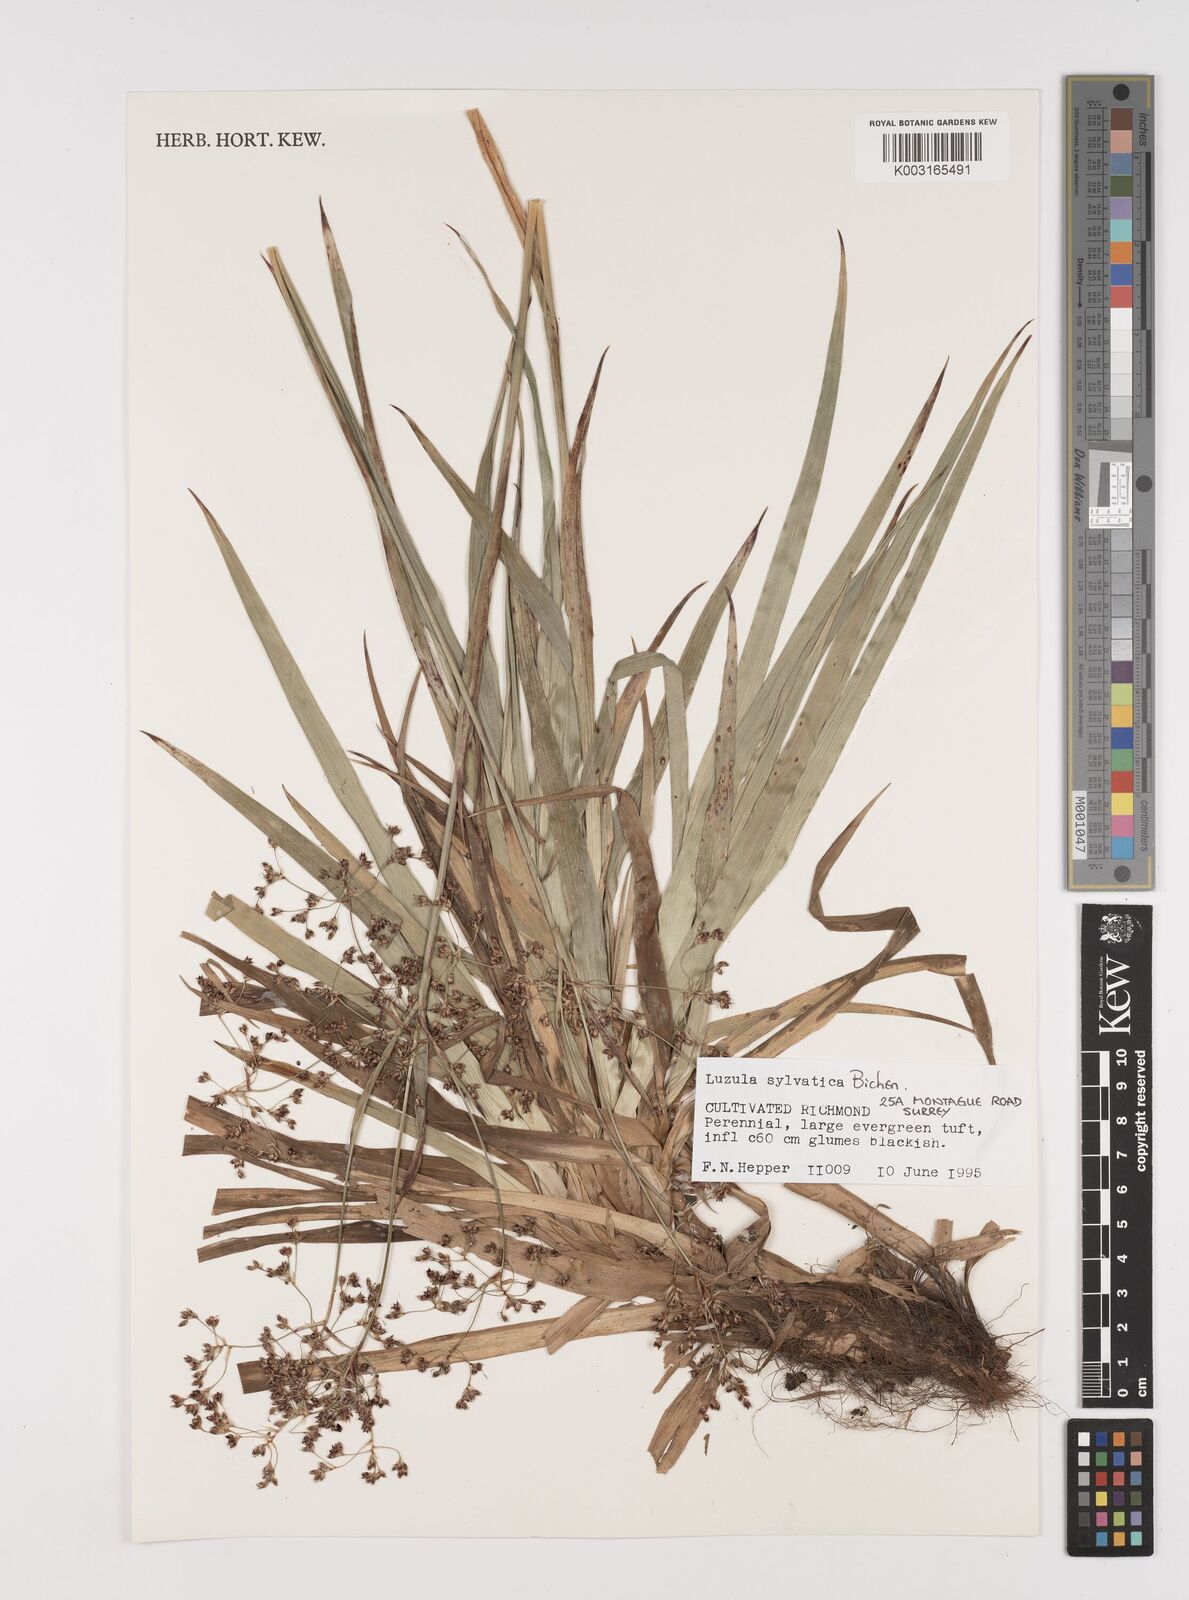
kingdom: Plantae
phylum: Tracheophyta
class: Liliopsida
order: Poales
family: Juncaceae
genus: Luzula
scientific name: Luzula sylvatica
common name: Great wood-rush
